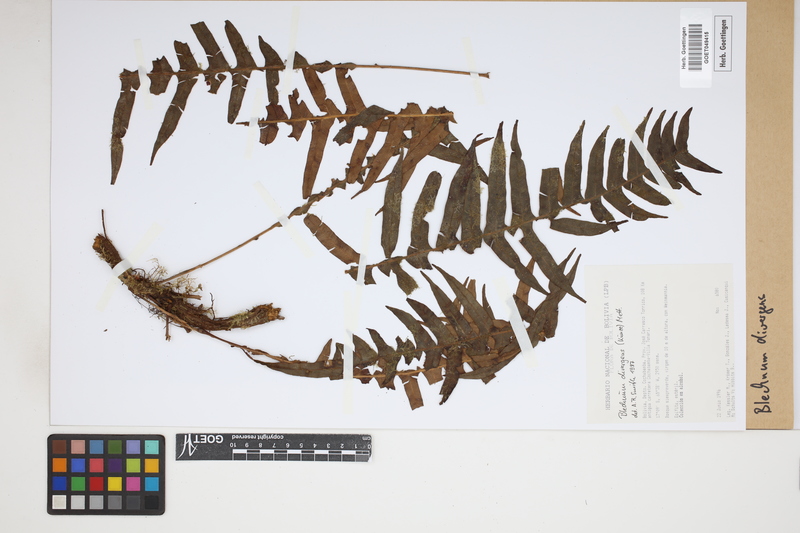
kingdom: Plantae
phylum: Tracheophyta
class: Polypodiopsida
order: Polypodiales
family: Blechnaceae
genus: Austroblechnum
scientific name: Austroblechnum divergens
